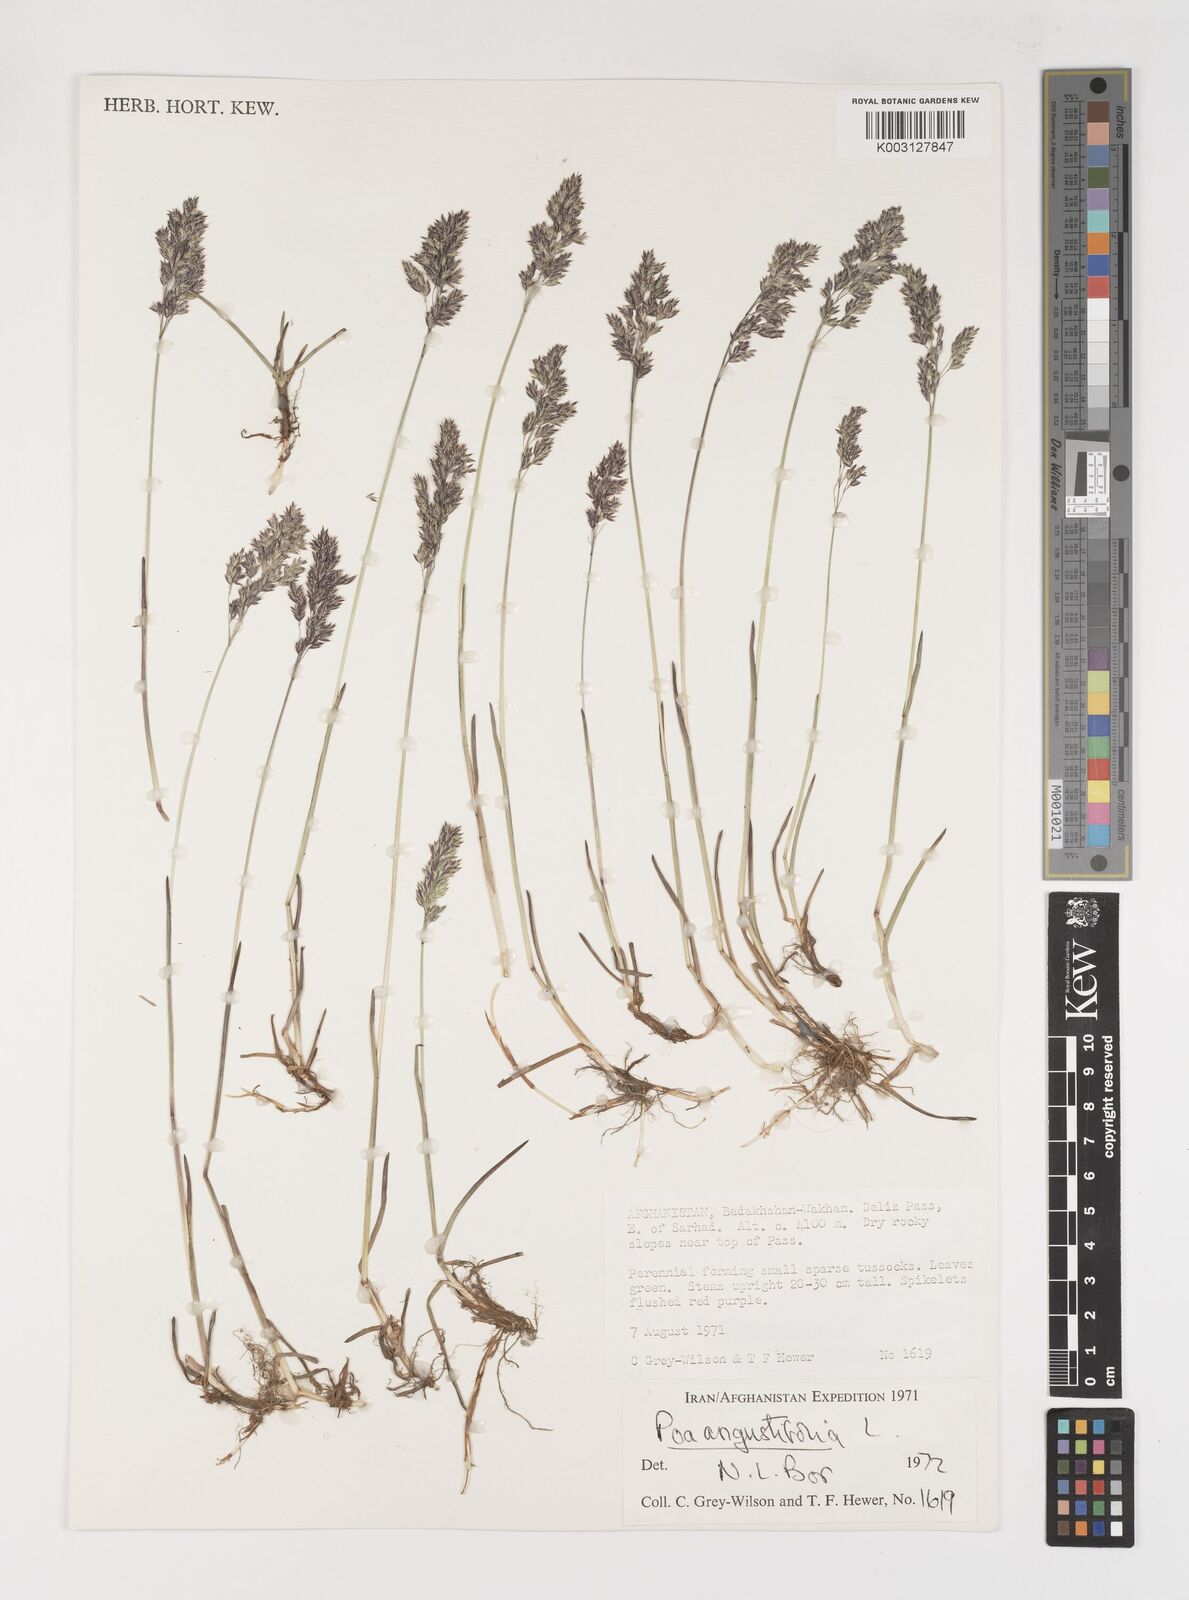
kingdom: Plantae
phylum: Tracheophyta
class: Liliopsida
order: Poales
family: Poaceae
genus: Poa
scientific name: Poa angustifolia
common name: Narrow-leaved meadow-grass
